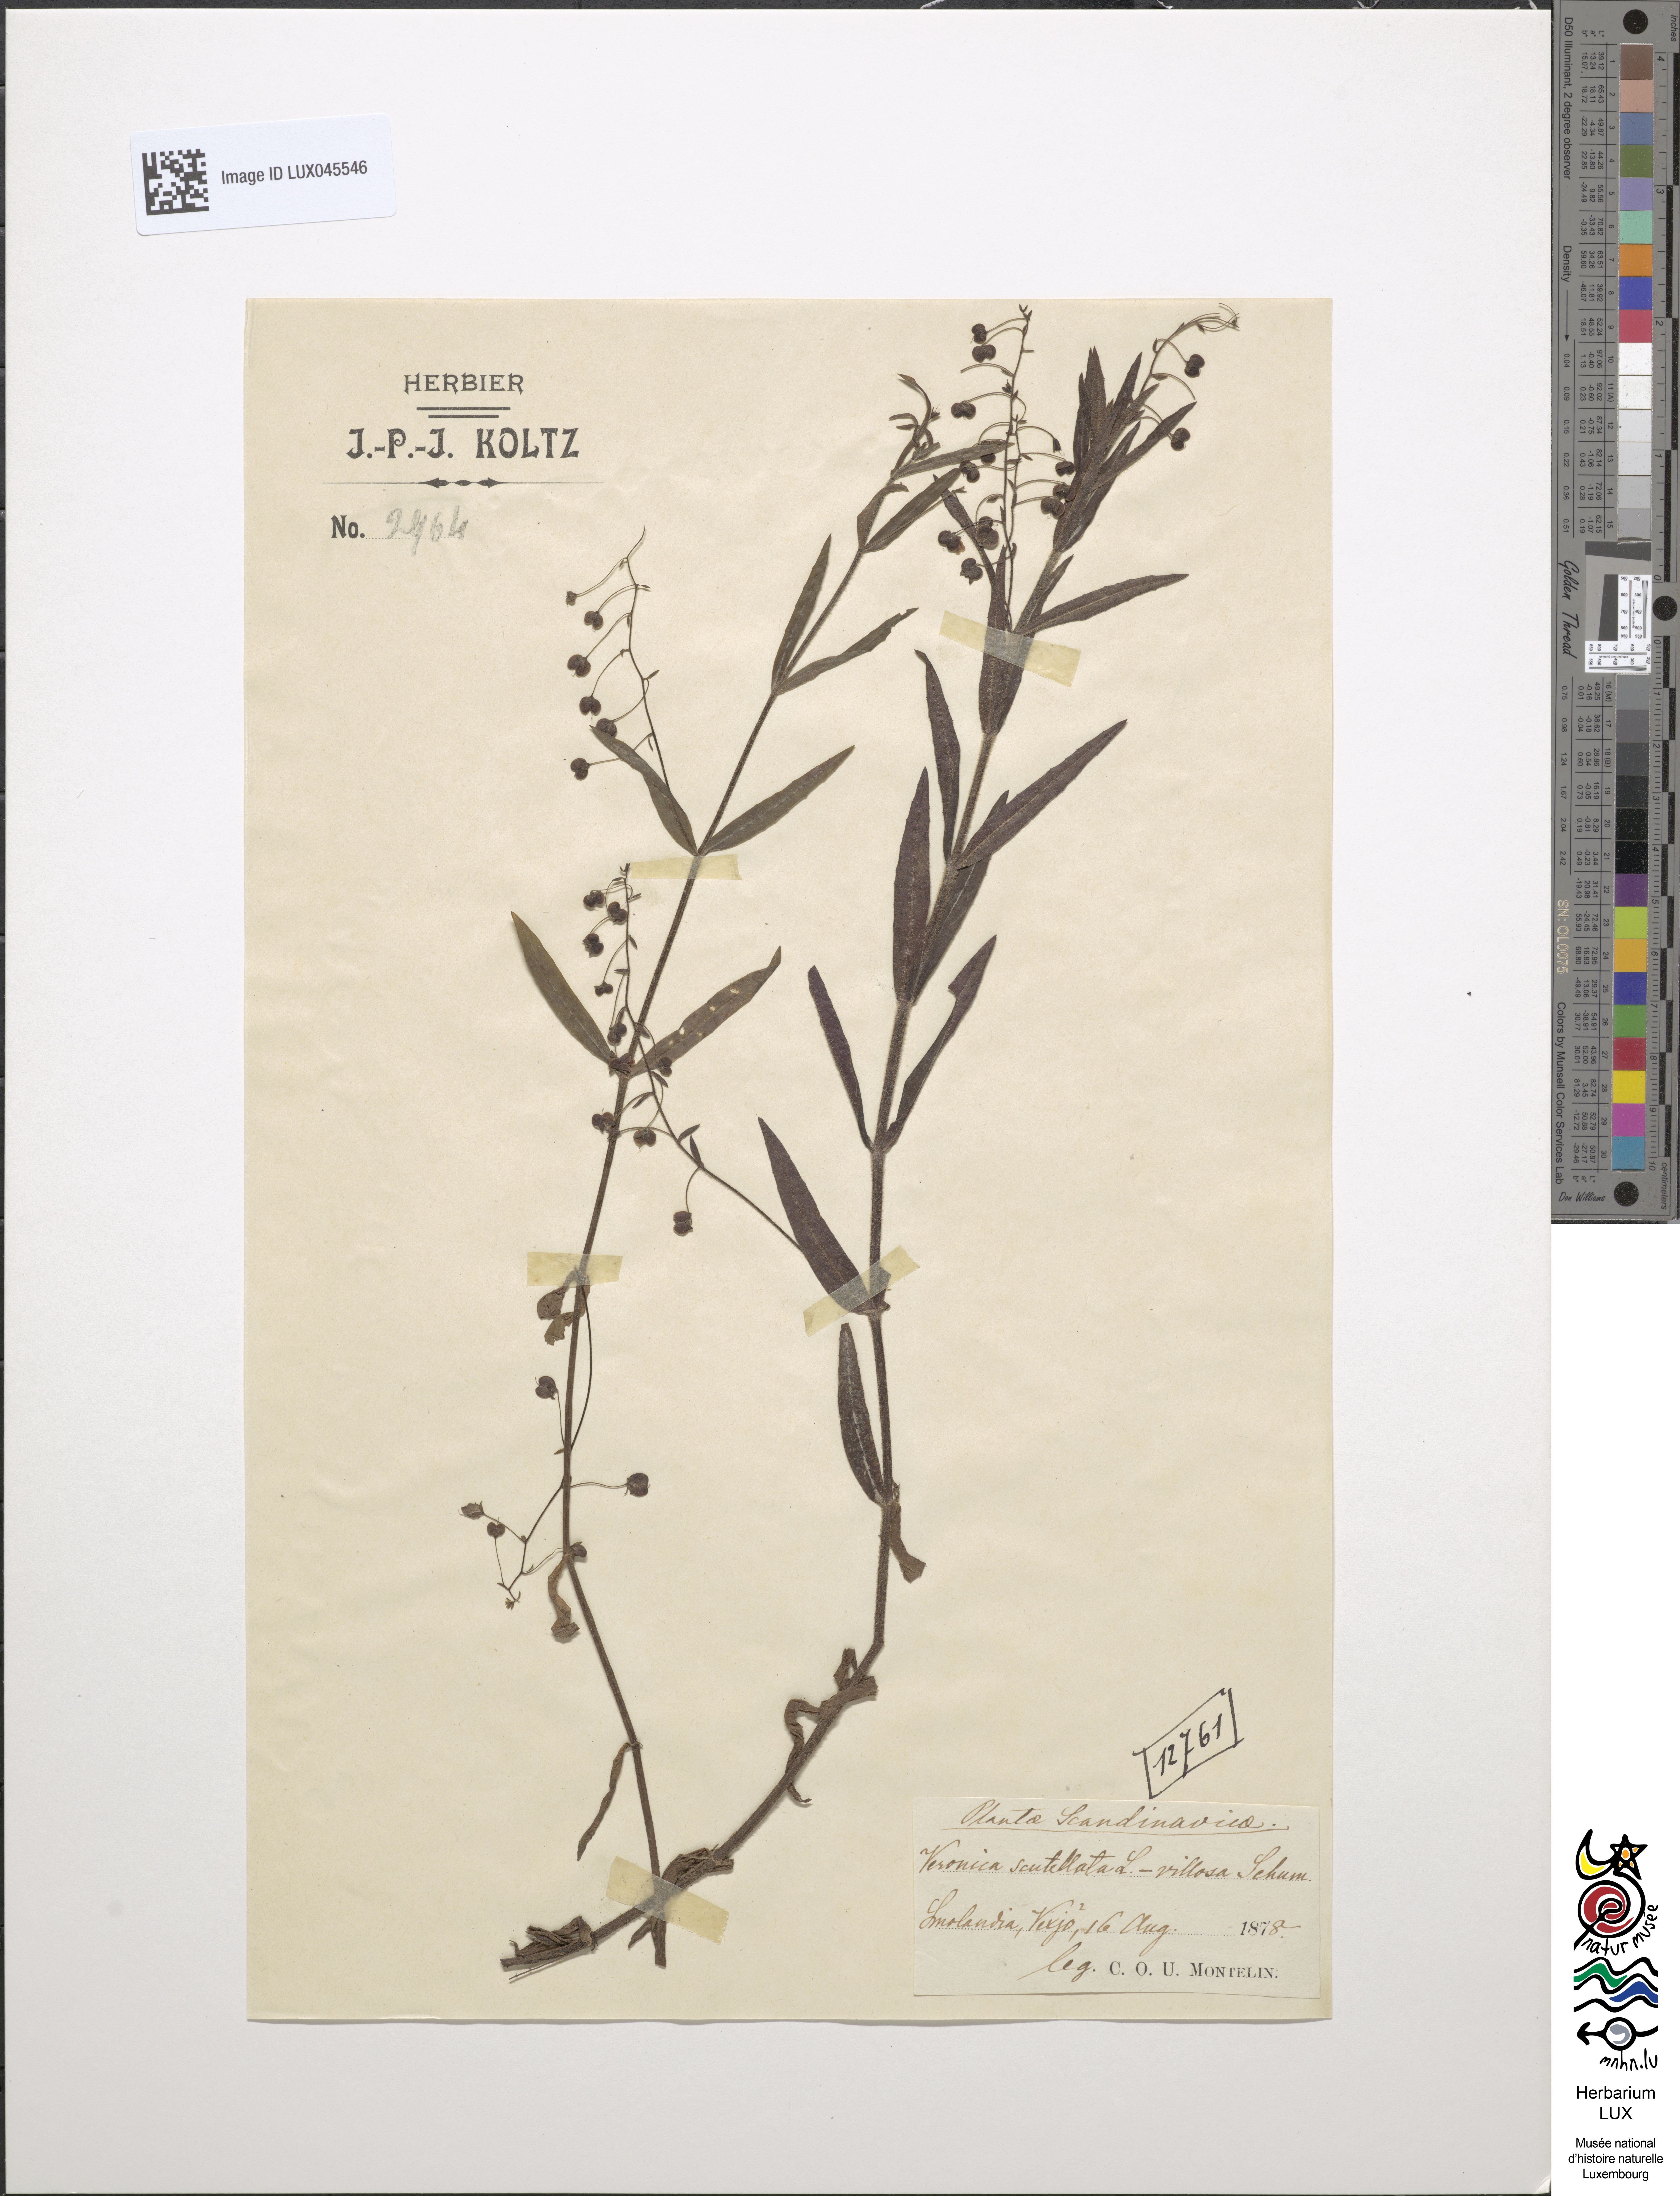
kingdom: Plantae
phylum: Tracheophyta
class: Magnoliopsida
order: Lamiales
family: Plantaginaceae
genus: Veronica
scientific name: Veronica scutellata
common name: Marsh speedwell
